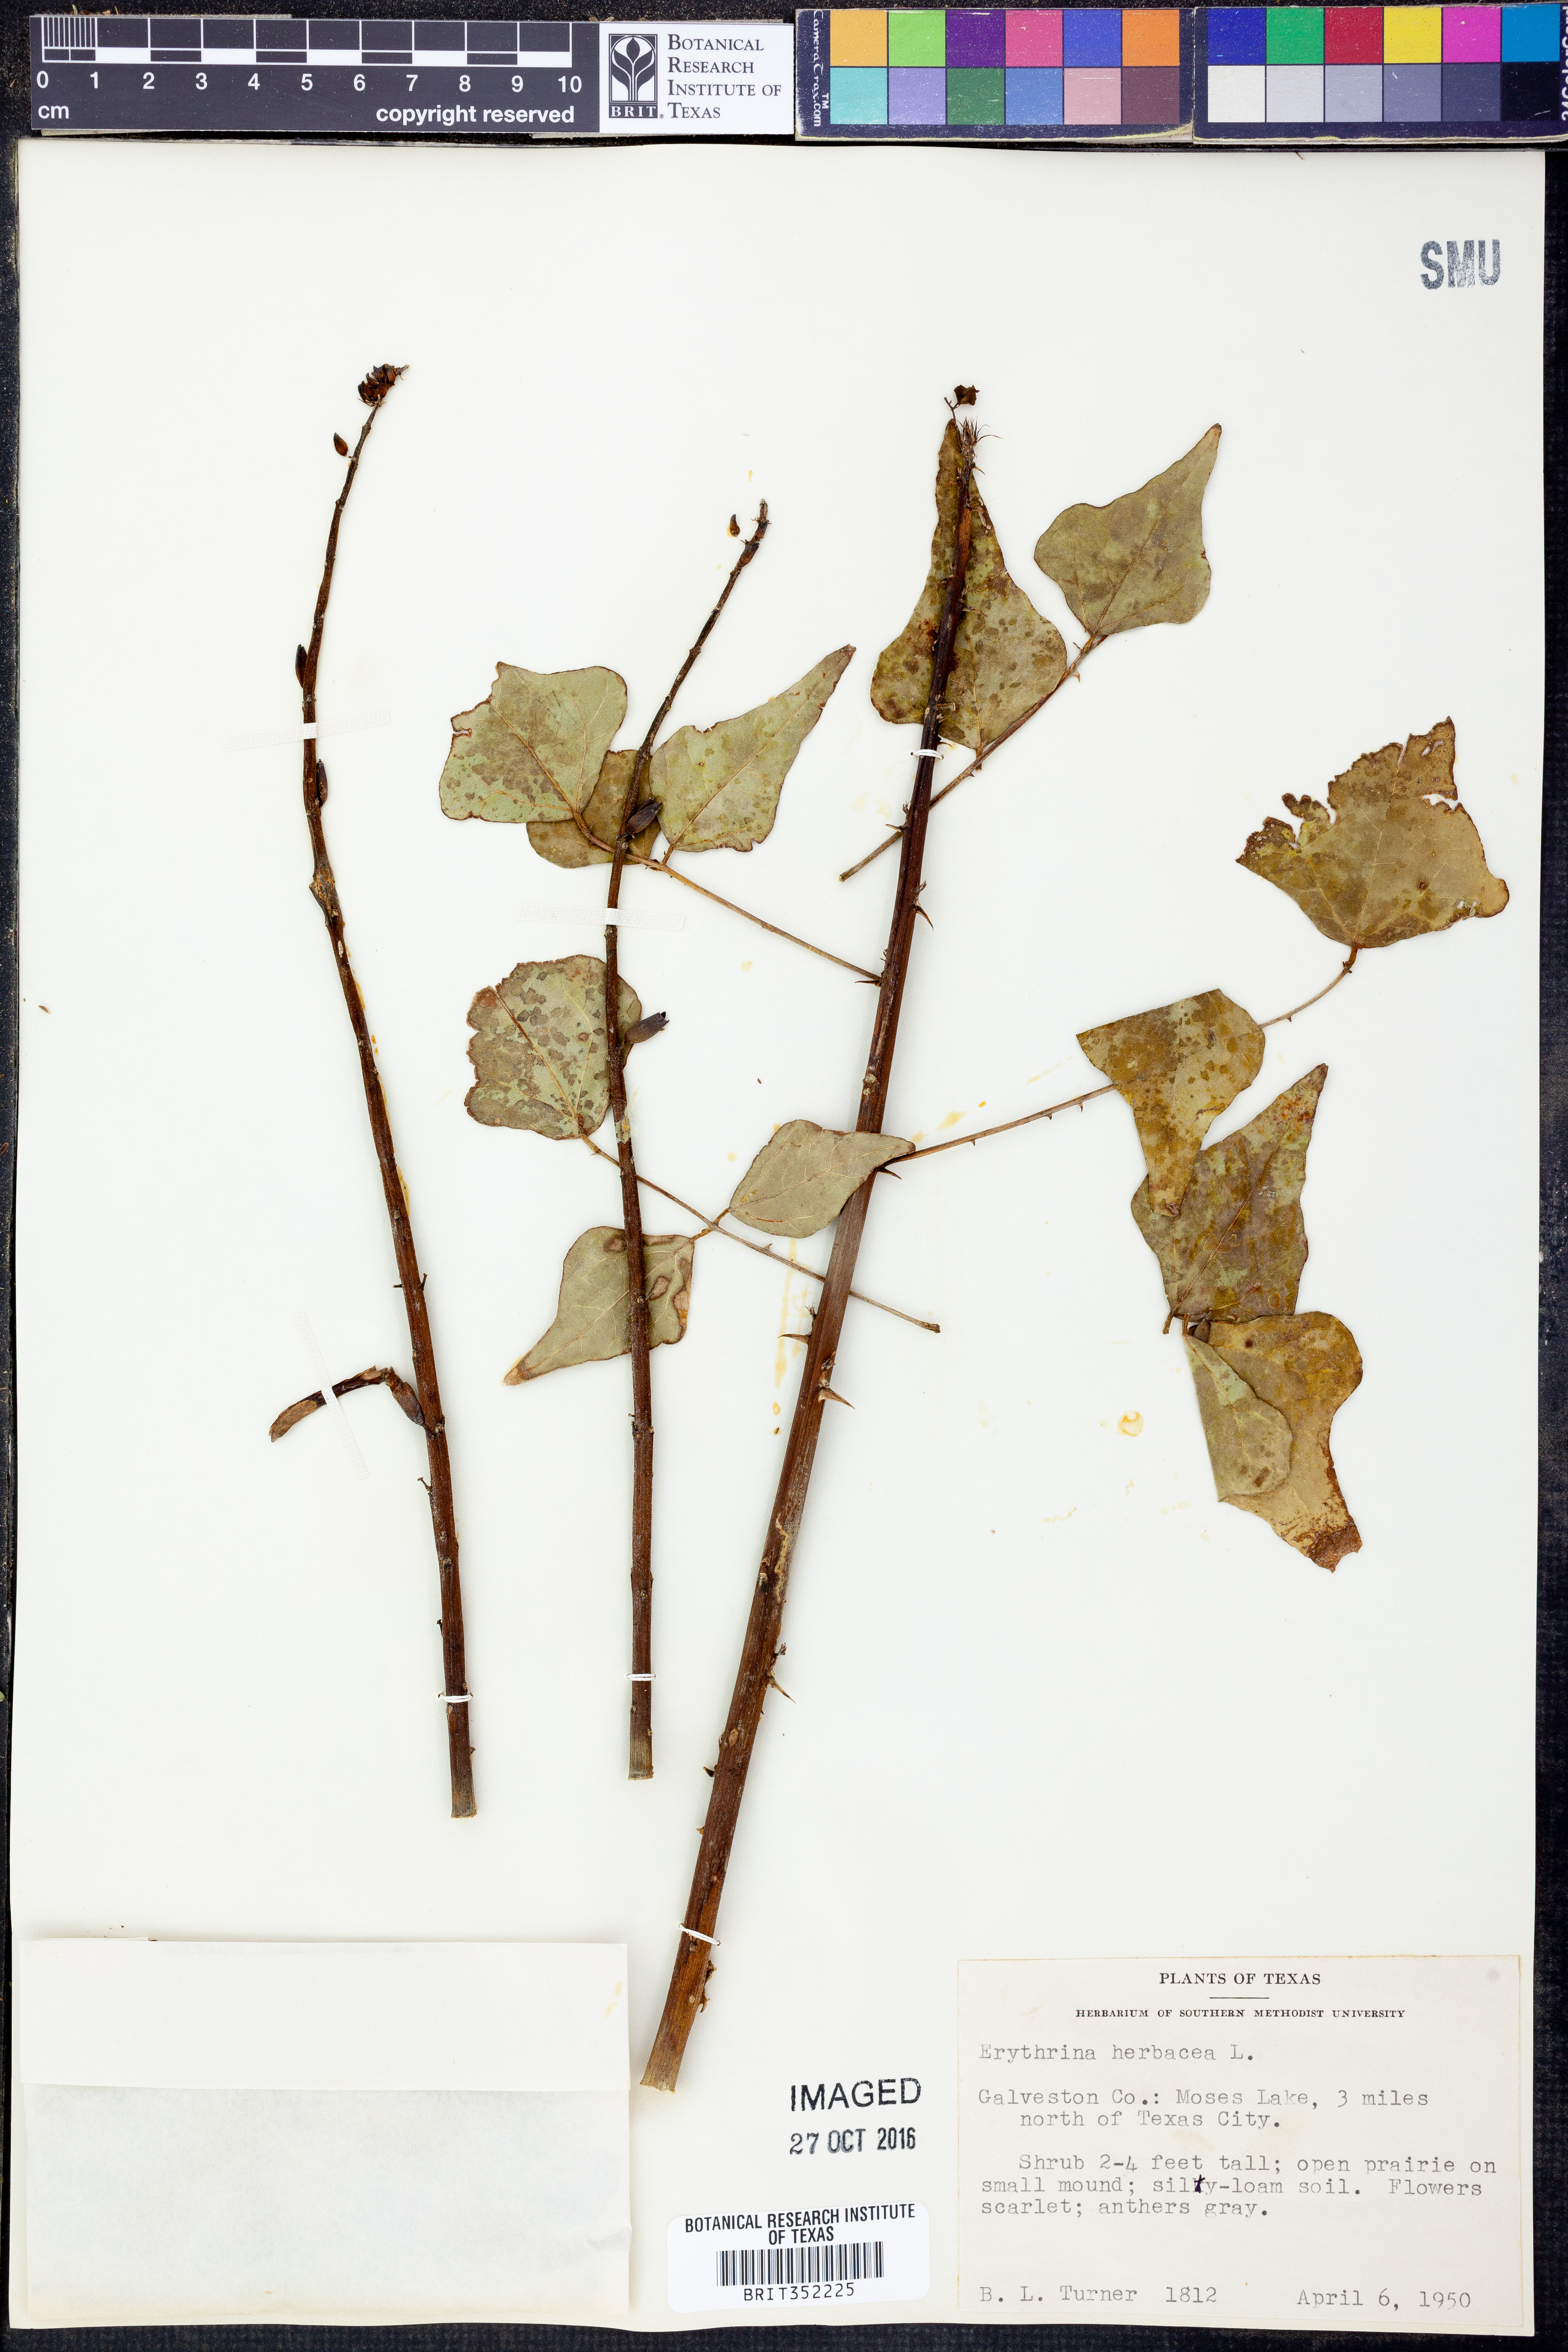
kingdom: Plantae
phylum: Tracheophyta
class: Magnoliopsida
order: Fabales
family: Fabaceae
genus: Erythrina
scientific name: Erythrina herbacea
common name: Coral-bean
